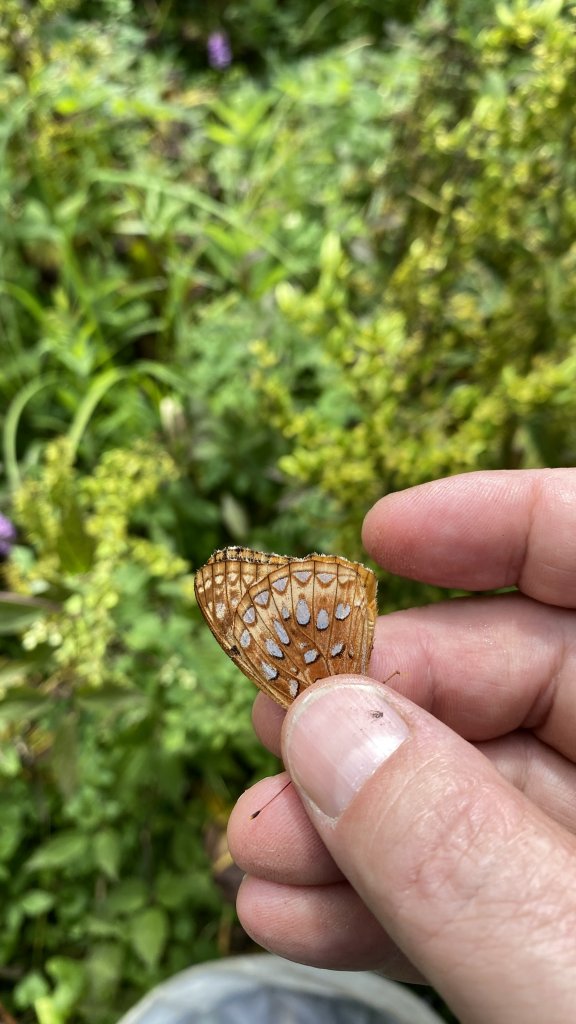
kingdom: Animalia
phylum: Arthropoda
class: Insecta
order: Lepidoptera
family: Nymphalidae
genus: Speyeria
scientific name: Speyeria aphrodite
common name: Aphrodite Fritillary
